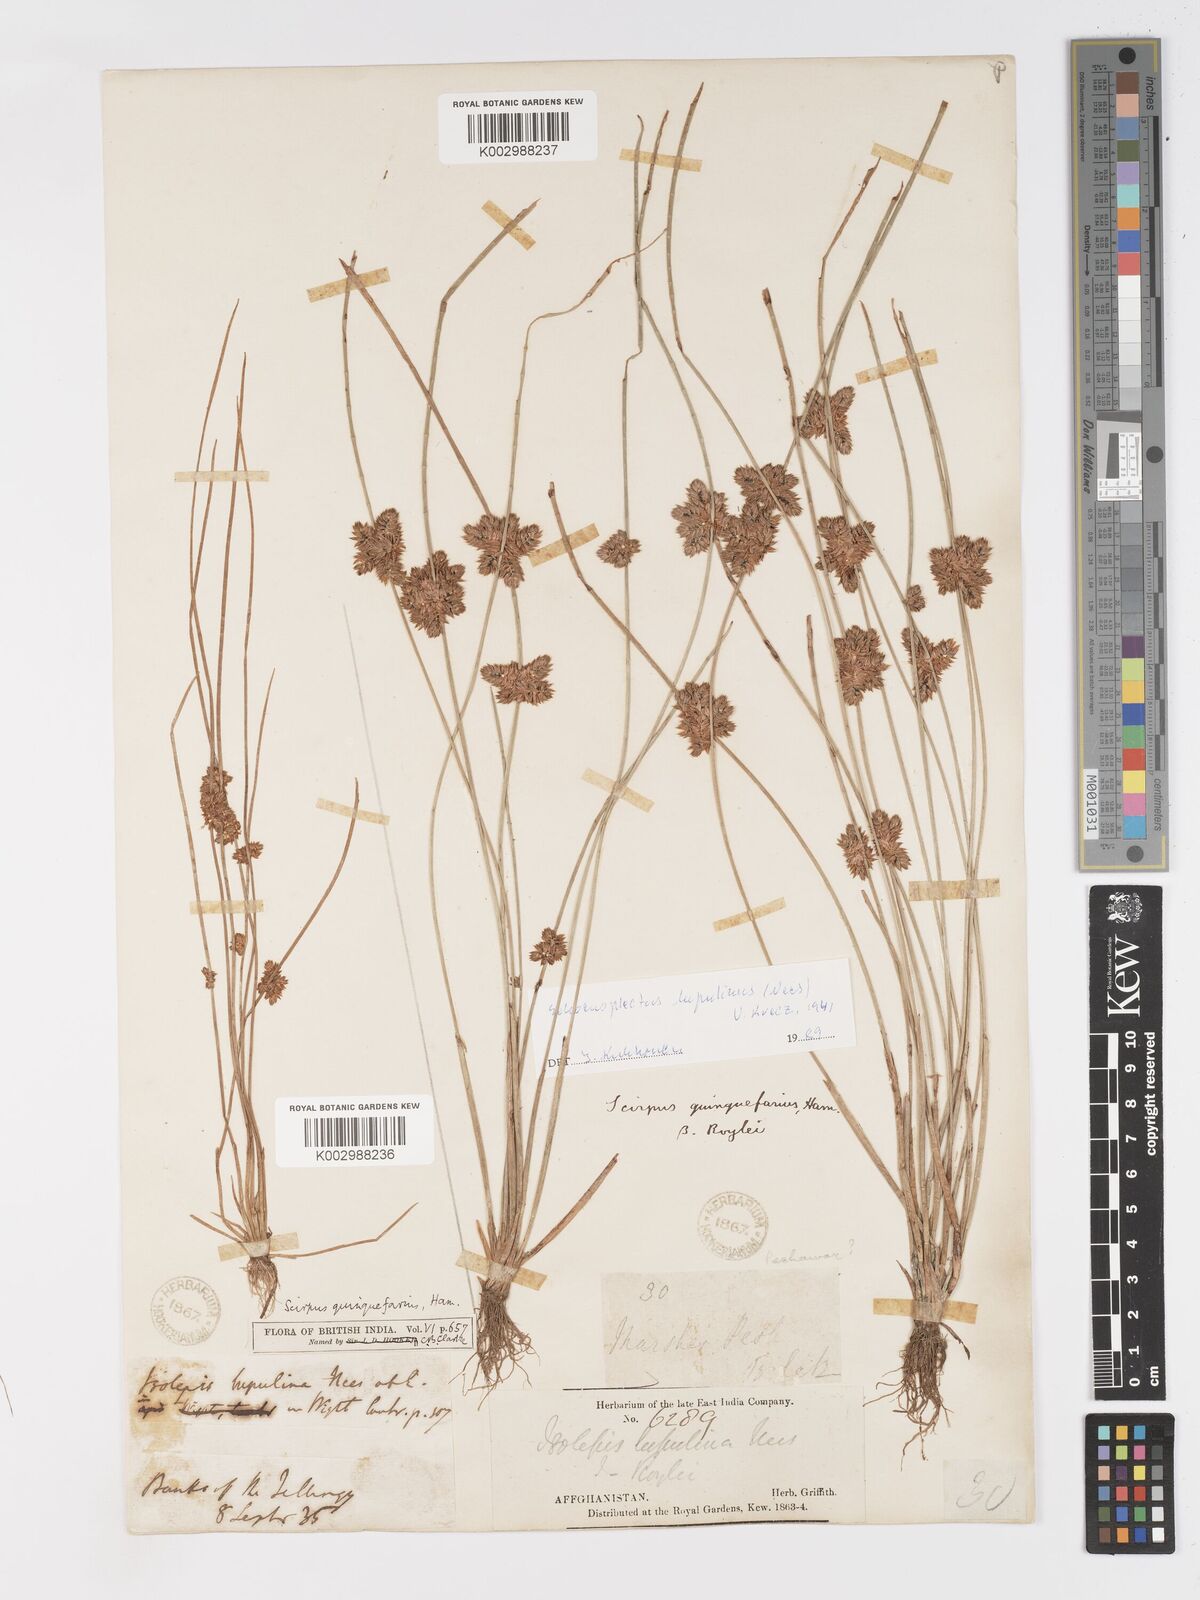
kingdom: Plantae
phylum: Tracheophyta
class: Liliopsida
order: Poales
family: Cyperaceae
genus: Schoenoplectiella
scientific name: Schoenoplectiella roylei
